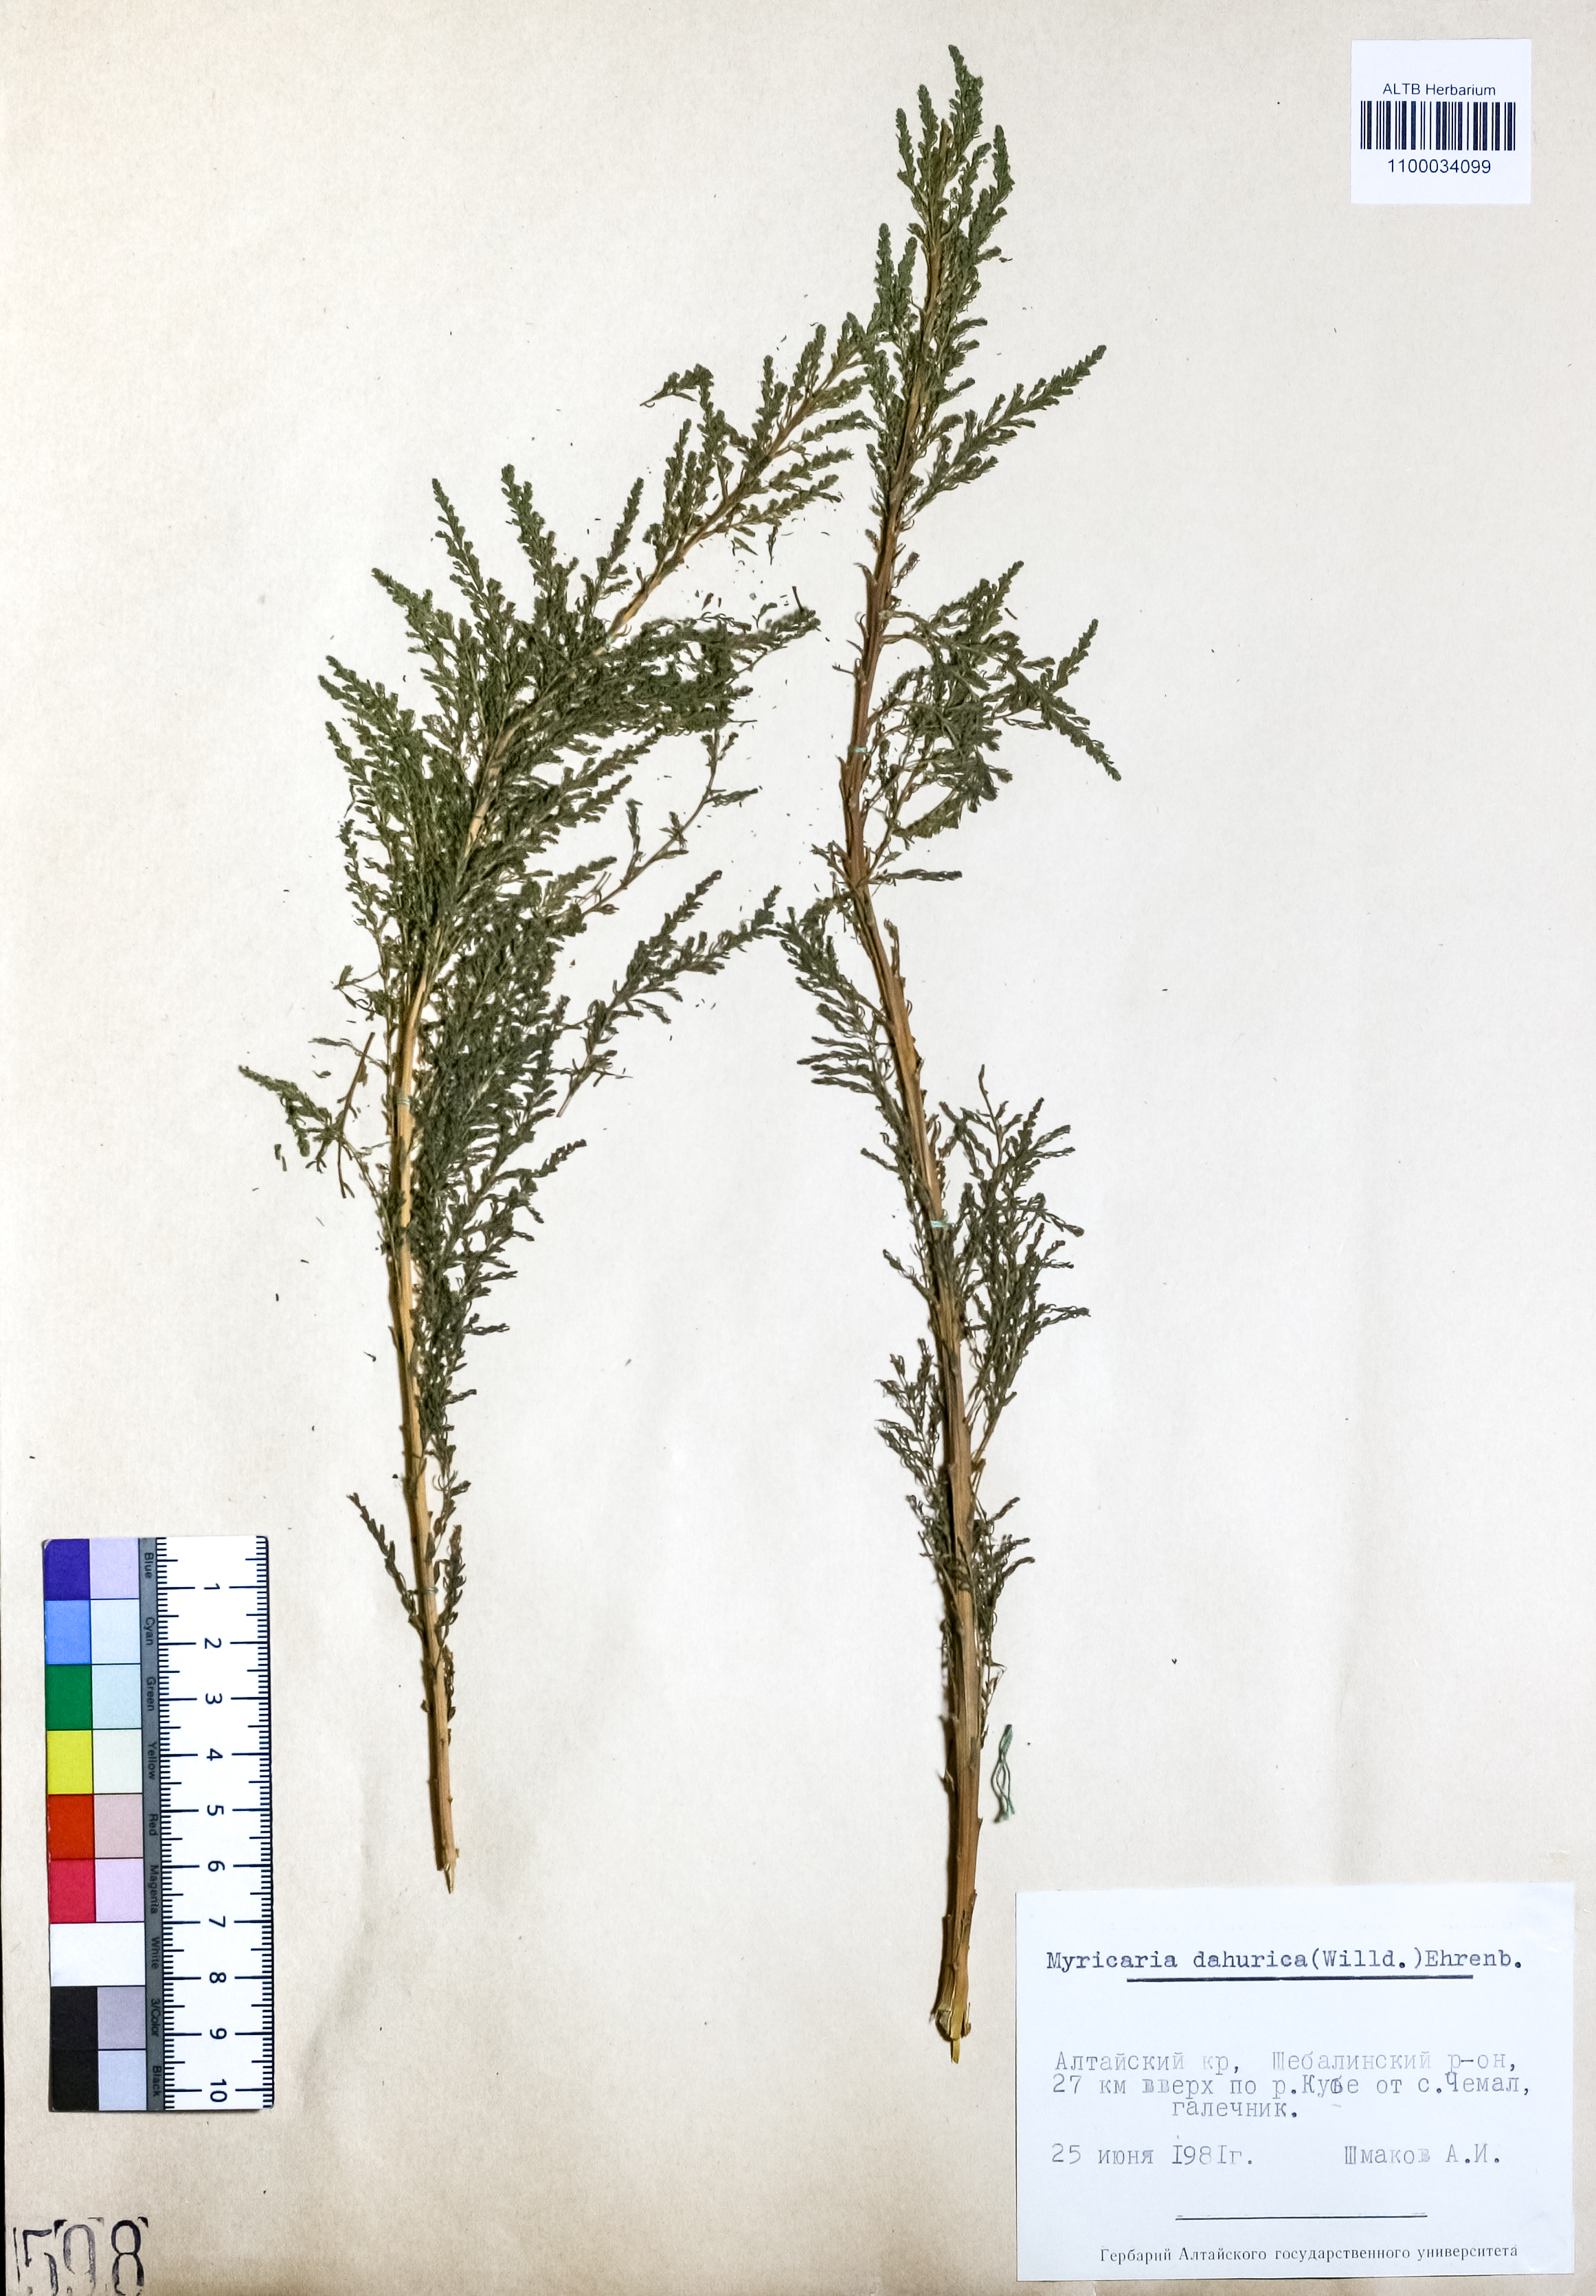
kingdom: Plantae
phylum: Tracheophyta
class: Magnoliopsida
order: Caryophyllales
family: Tamaricaceae
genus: Myricaria
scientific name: Myricaria davurica
